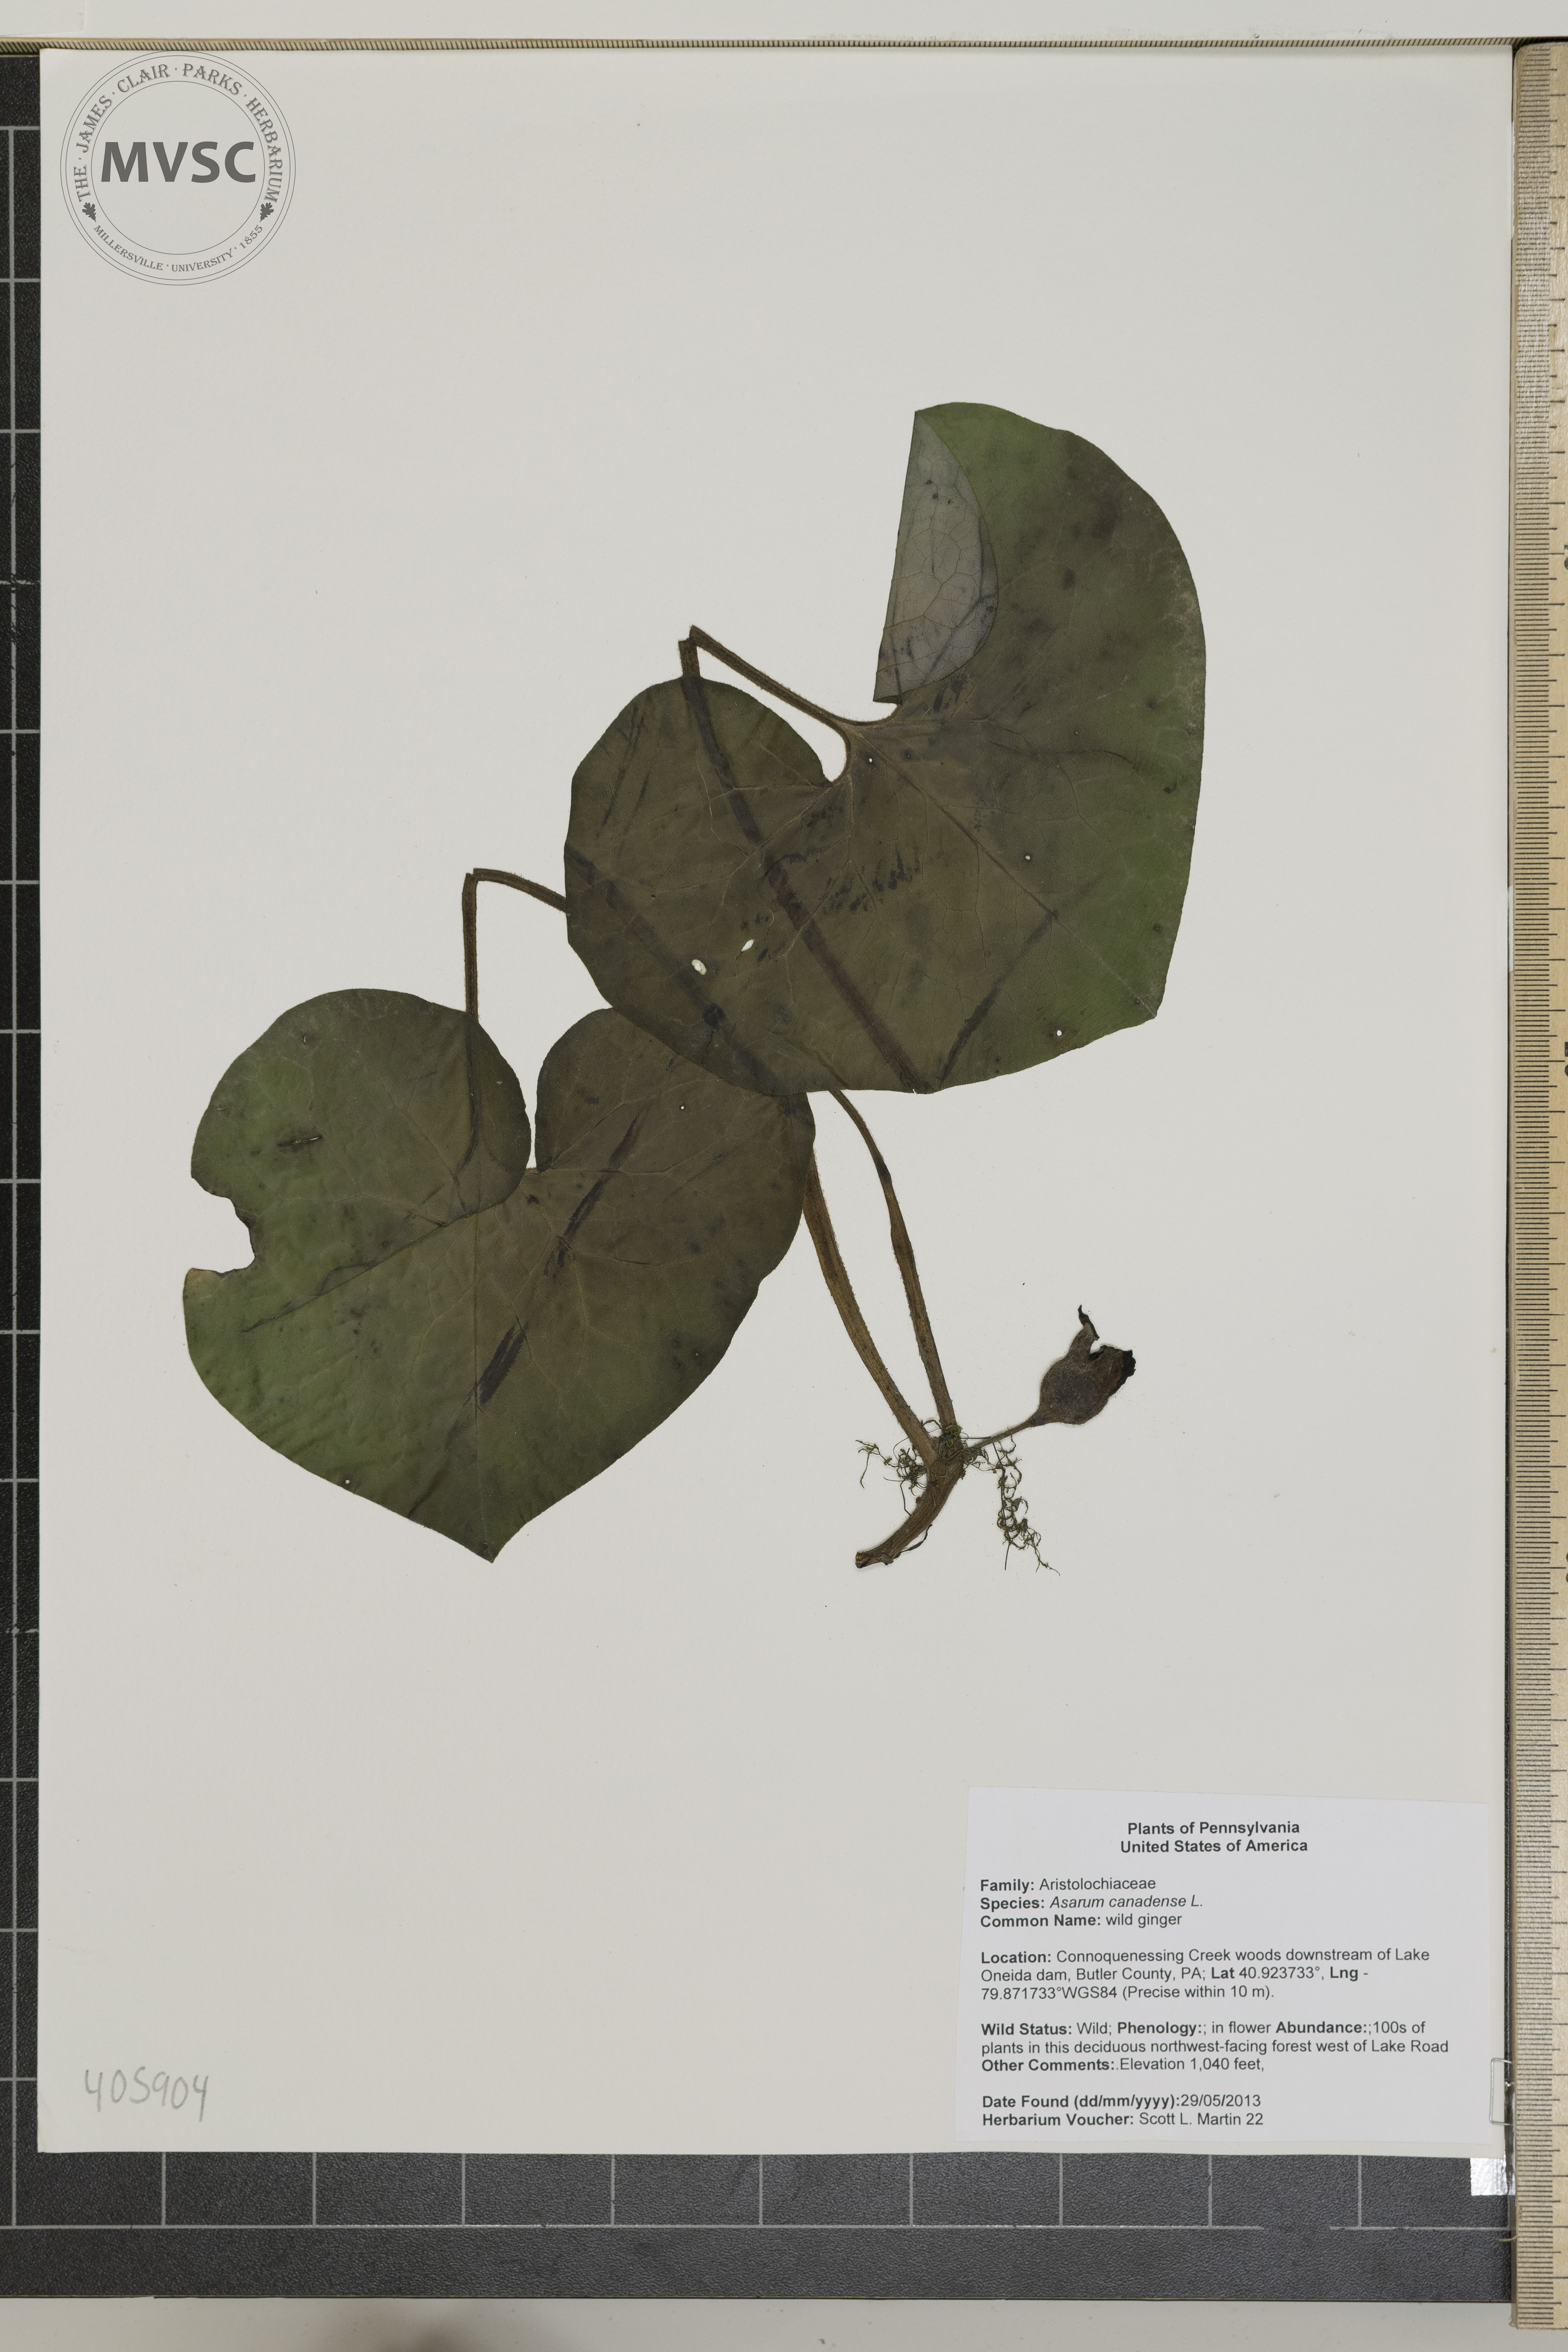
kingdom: Plantae
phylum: Tracheophyta
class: Magnoliopsida
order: Piperales
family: Aristolochiaceae
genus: Asarum
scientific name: Asarum canadense
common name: wild ginger
